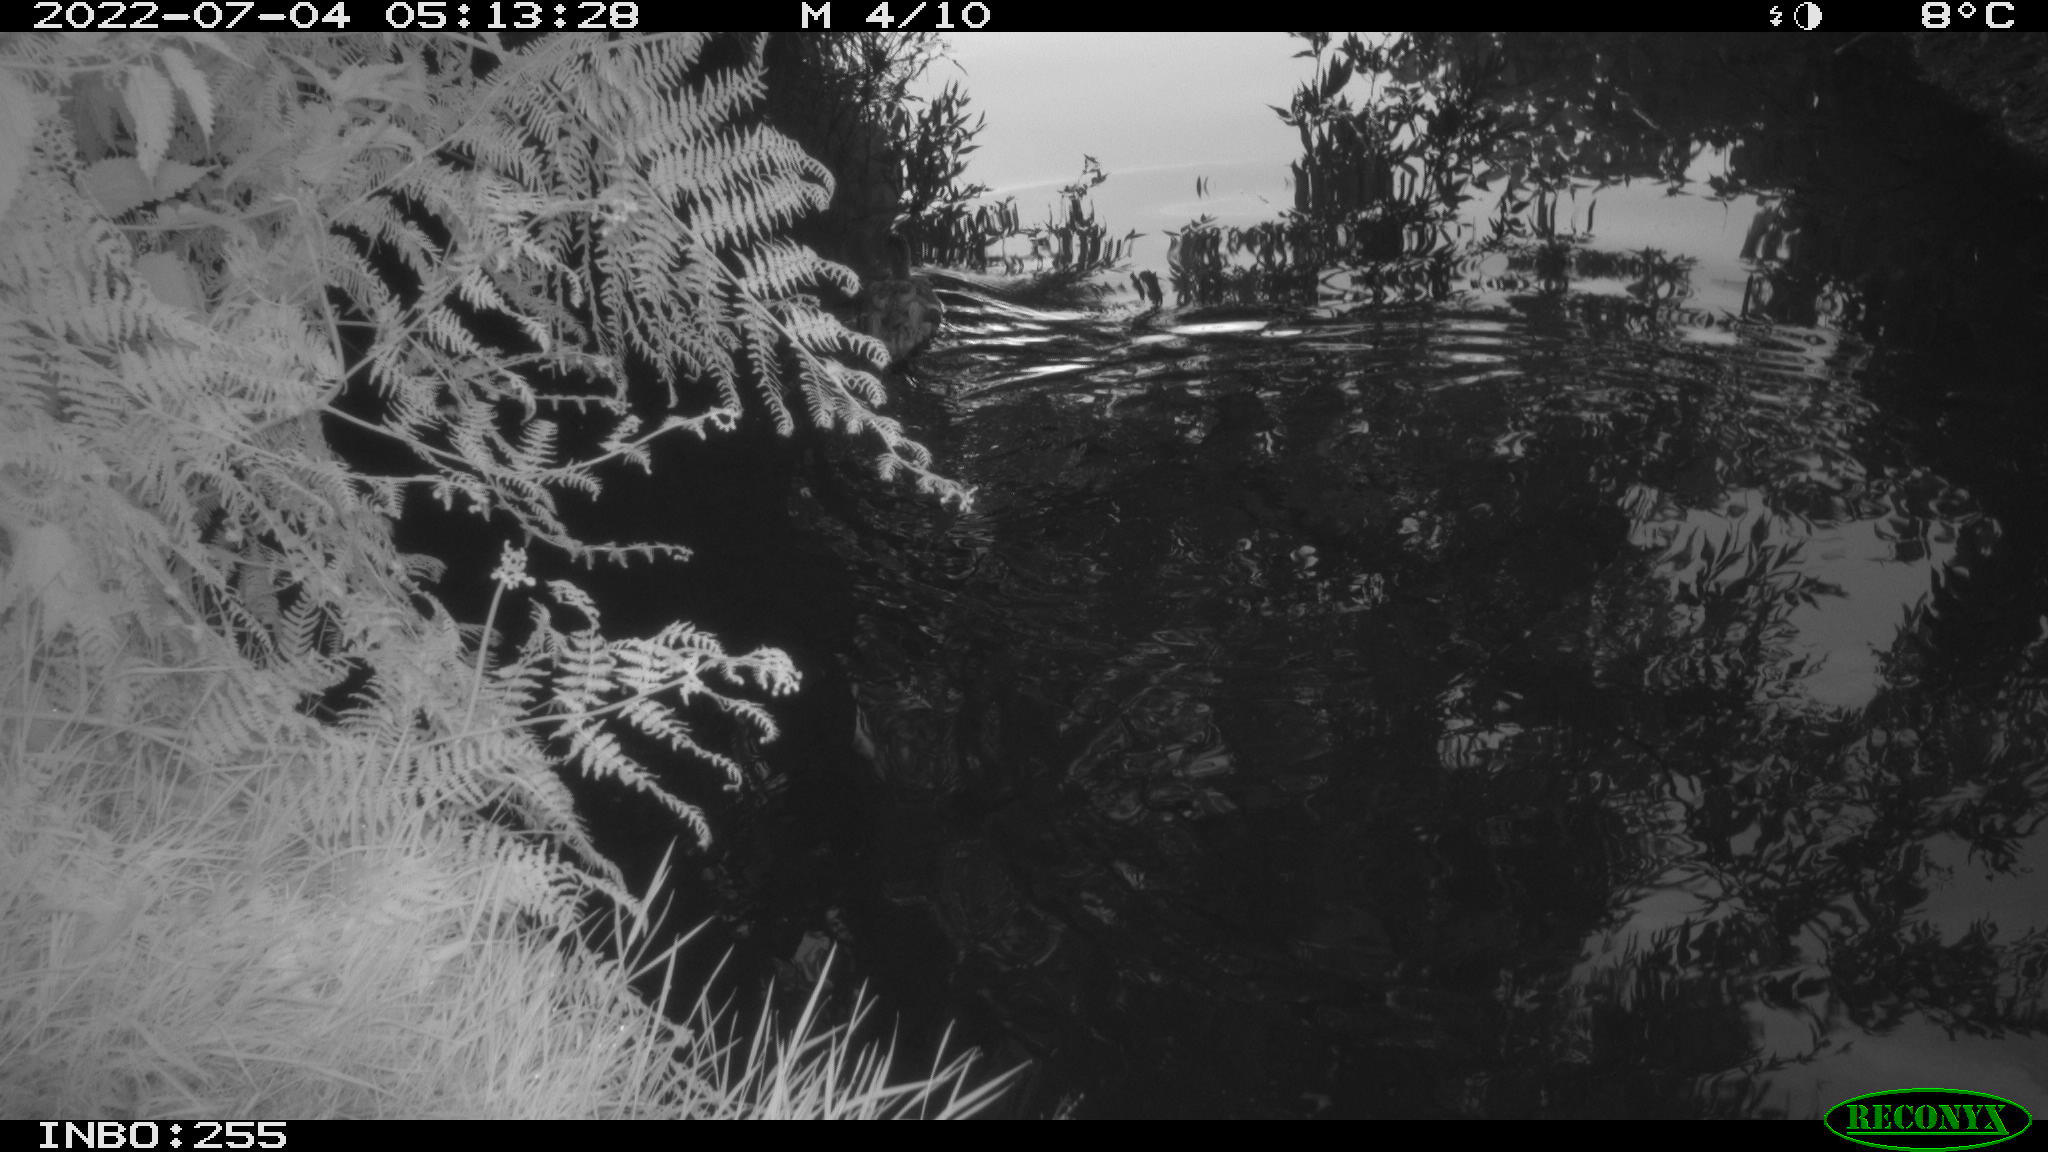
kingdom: Animalia
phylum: Chordata
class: Aves
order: Anseriformes
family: Anatidae
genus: Anas
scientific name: Anas platyrhynchos
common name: Mallard
